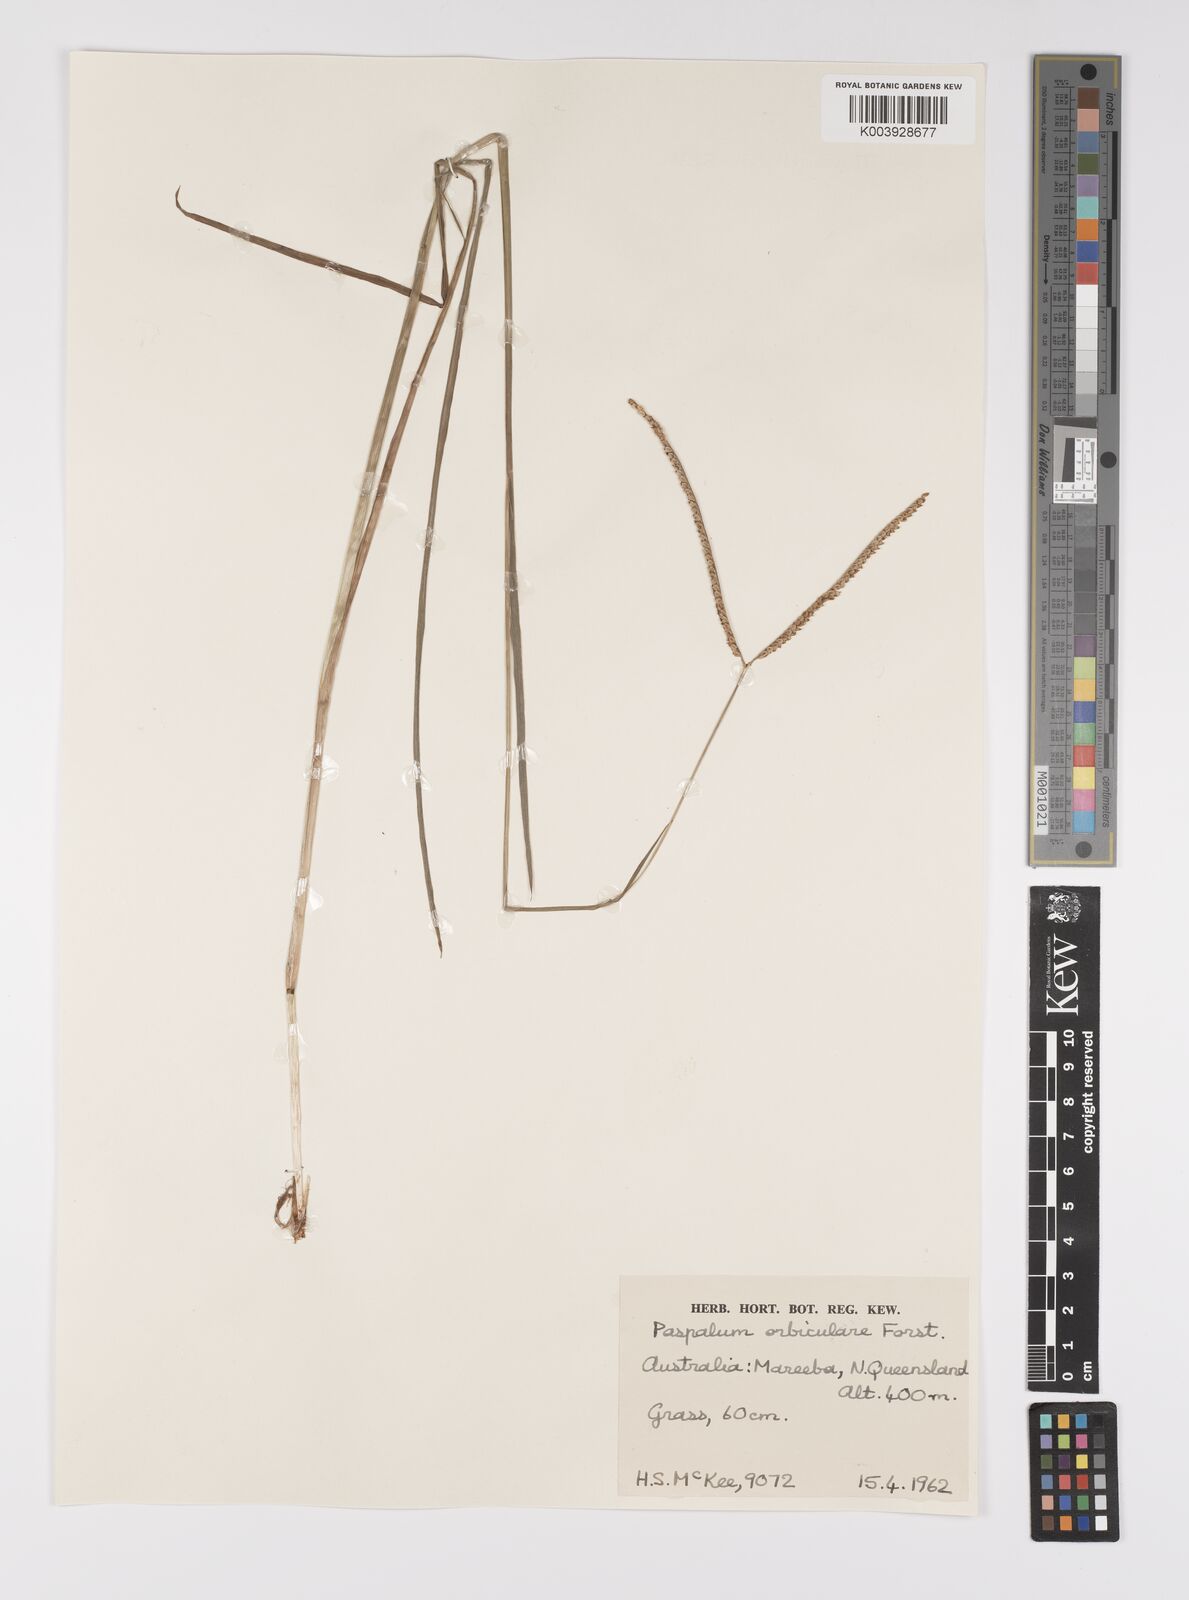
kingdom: Plantae
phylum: Tracheophyta
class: Liliopsida
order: Poales
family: Poaceae
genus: Paspalum
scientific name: Paspalum scrobiculatum
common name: Kodo millet
